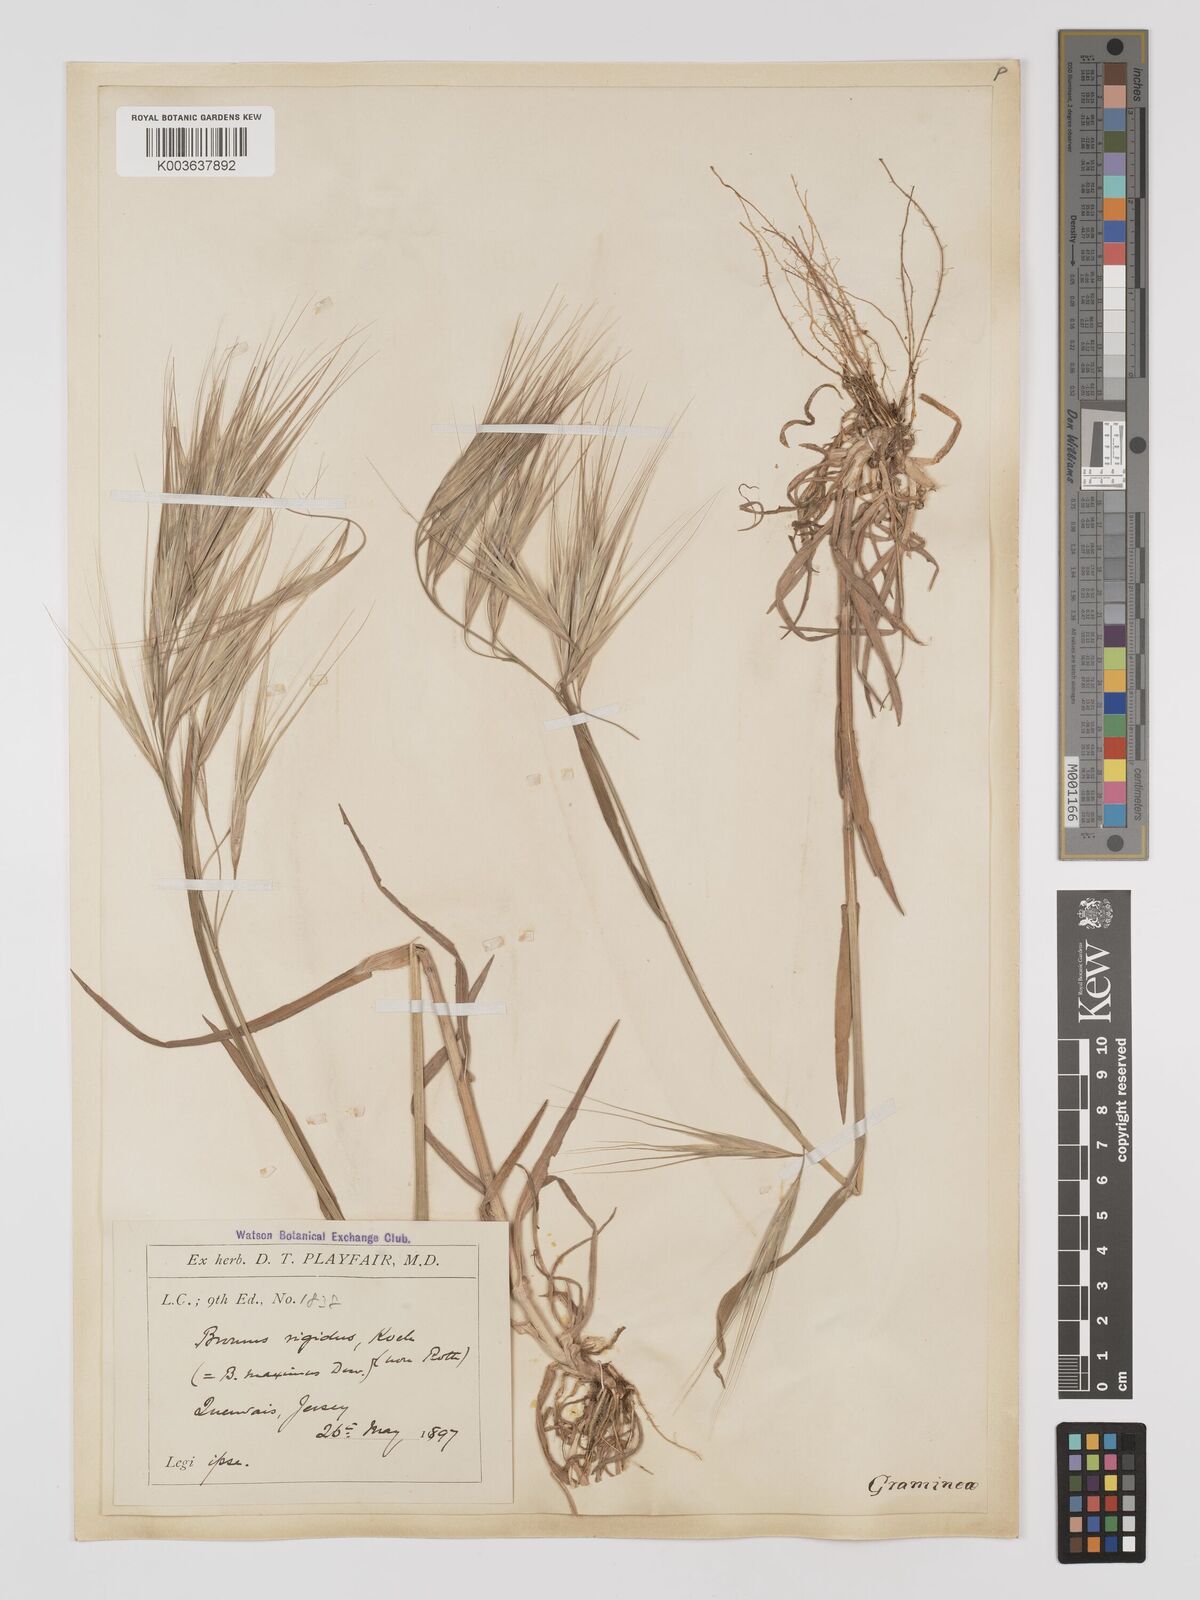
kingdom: Plantae
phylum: Tracheophyta
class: Liliopsida
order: Poales
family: Poaceae
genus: Bromus
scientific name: Bromus
